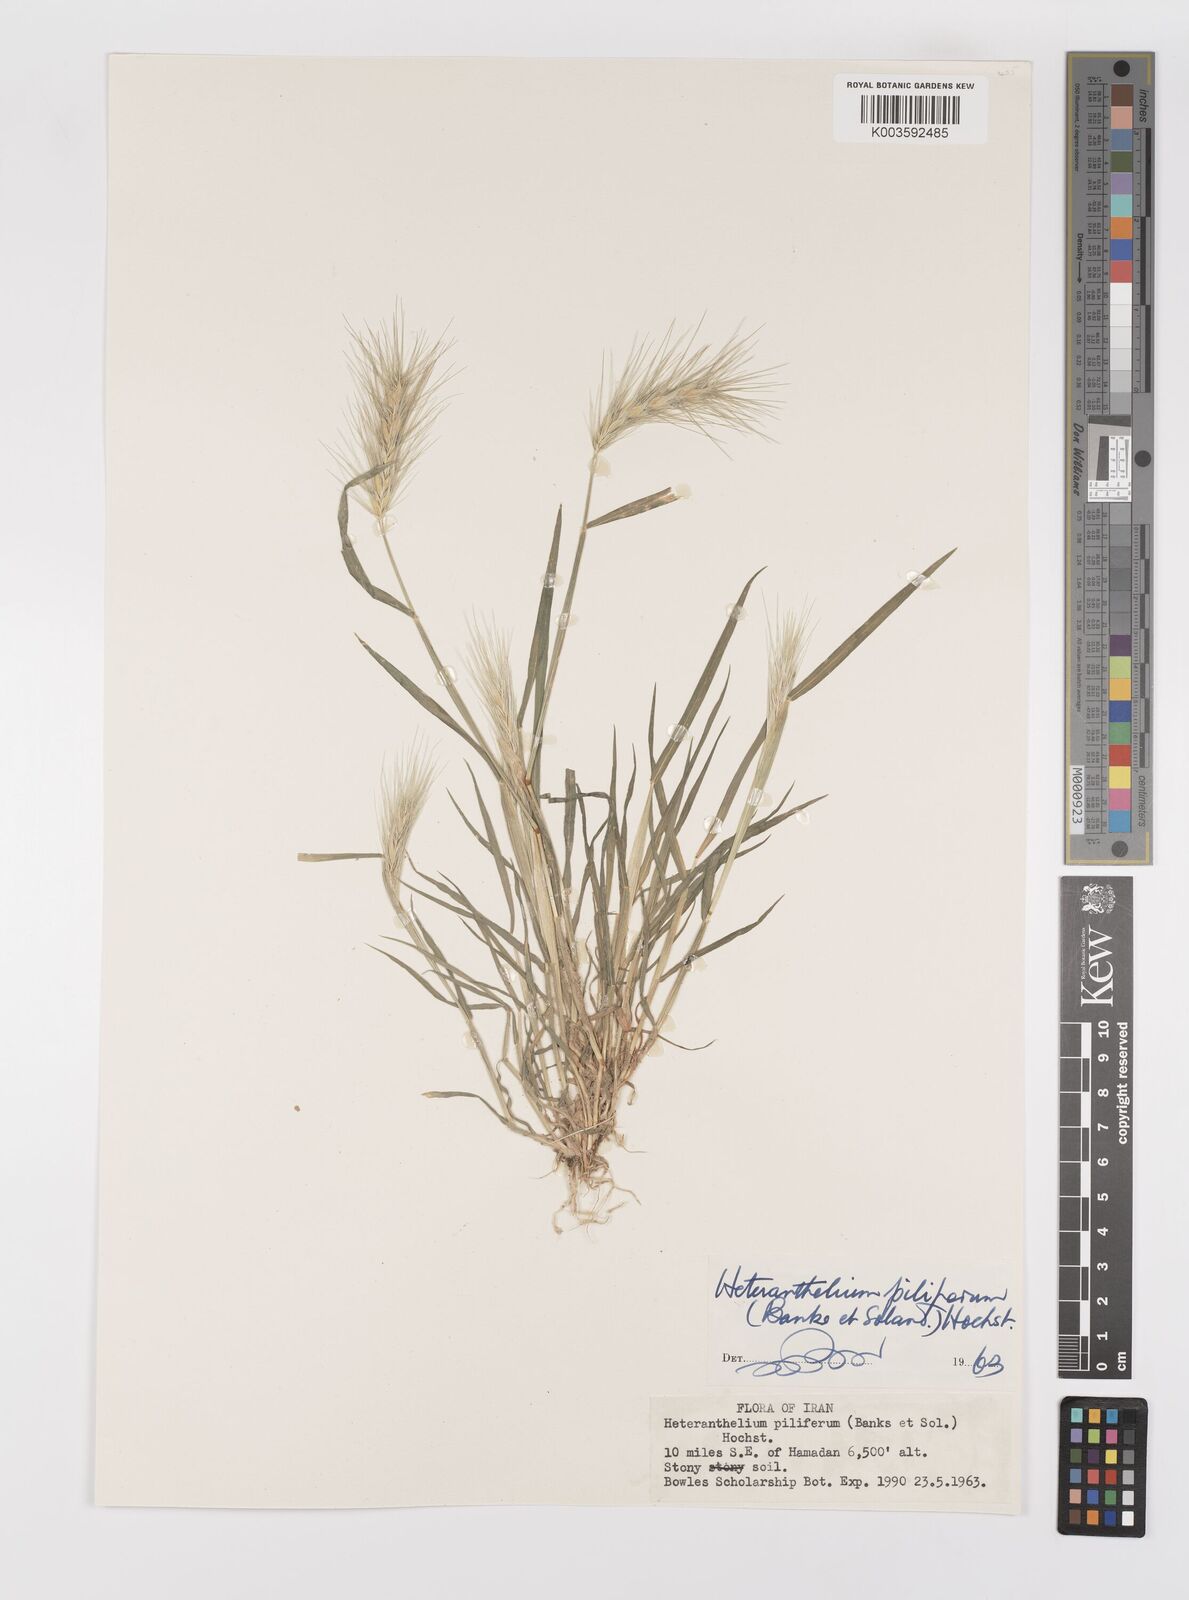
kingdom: Plantae
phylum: Tracheophyta
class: Liliopsida
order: Poales
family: Poaceae
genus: Heteranthelium
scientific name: Heteranthelium piliferum
